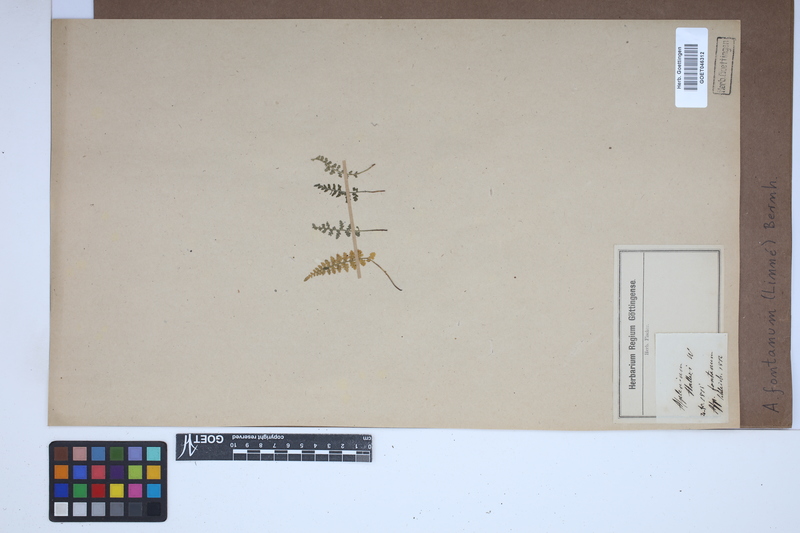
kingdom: Plantae
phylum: Tracheophyta
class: Polypodiopsida
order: Polypodiales
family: Aspleniaceae
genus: Asplenium
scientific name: Asplenium fontanum
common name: Fountain spleenwort
